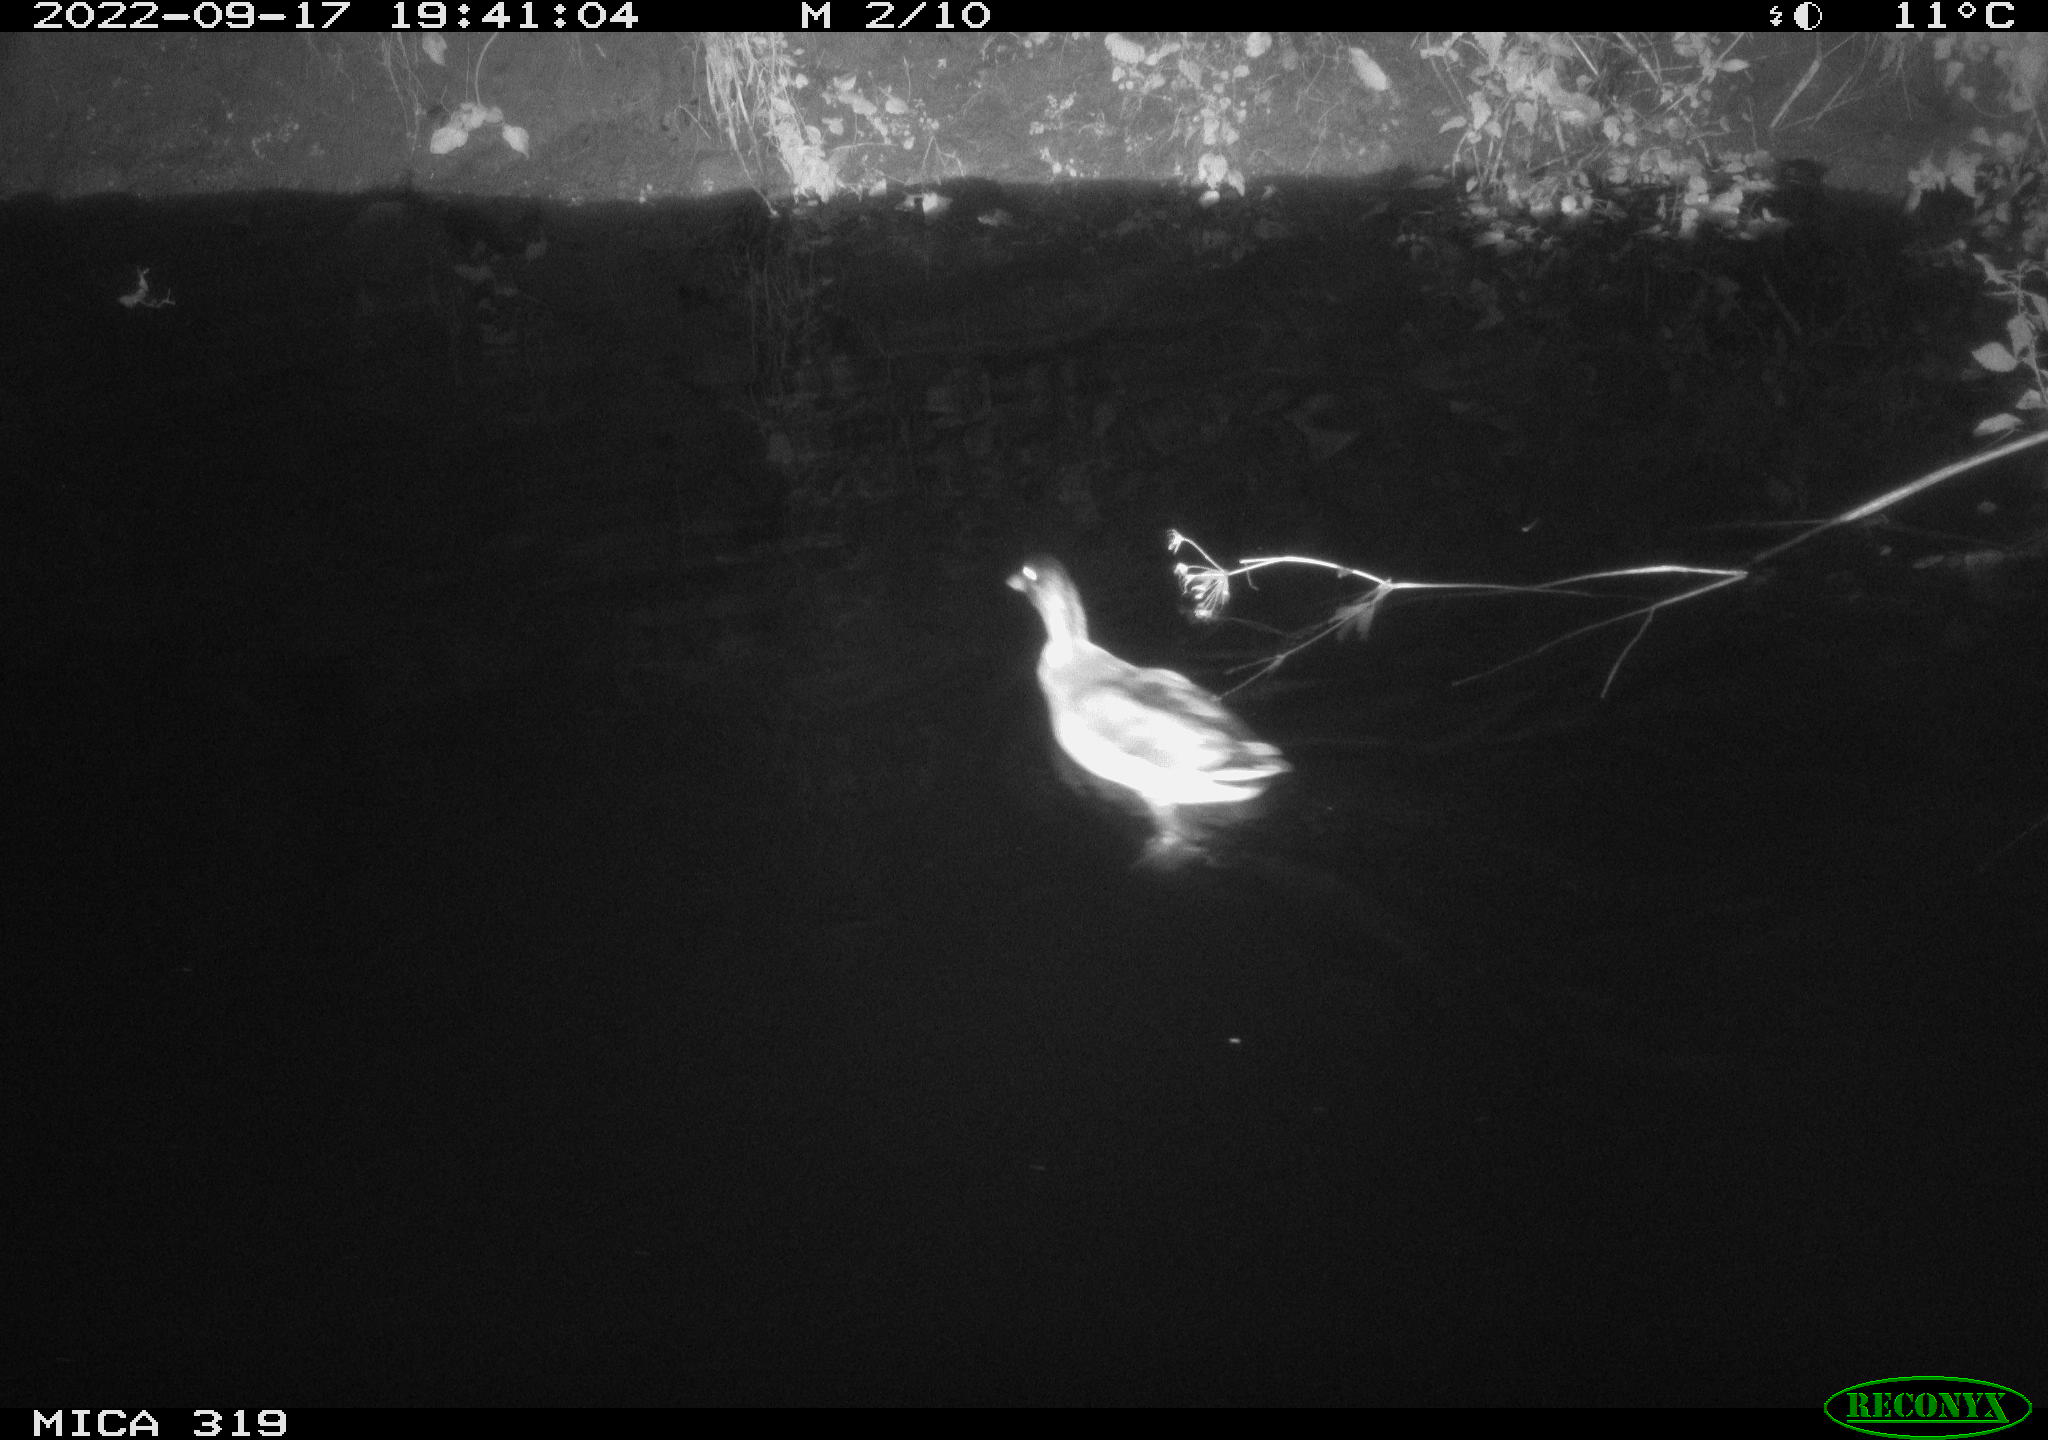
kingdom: Animalia
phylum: Chordata
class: Aves
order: Anseriformes
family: Anatidae
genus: Anas
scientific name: Anas
